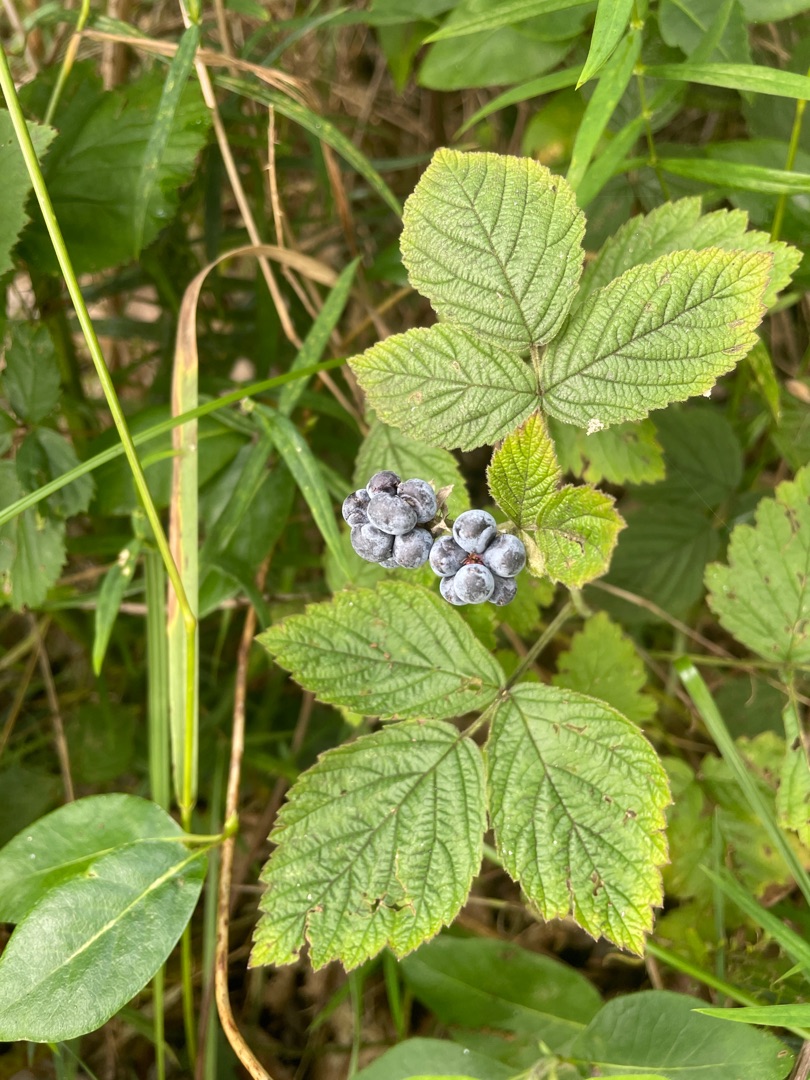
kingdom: Plantae
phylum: Tracheophyta
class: Magnoliopsida
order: Rosales
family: Rosaceae
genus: Rubus
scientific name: Rubus caesius
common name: Korbær
